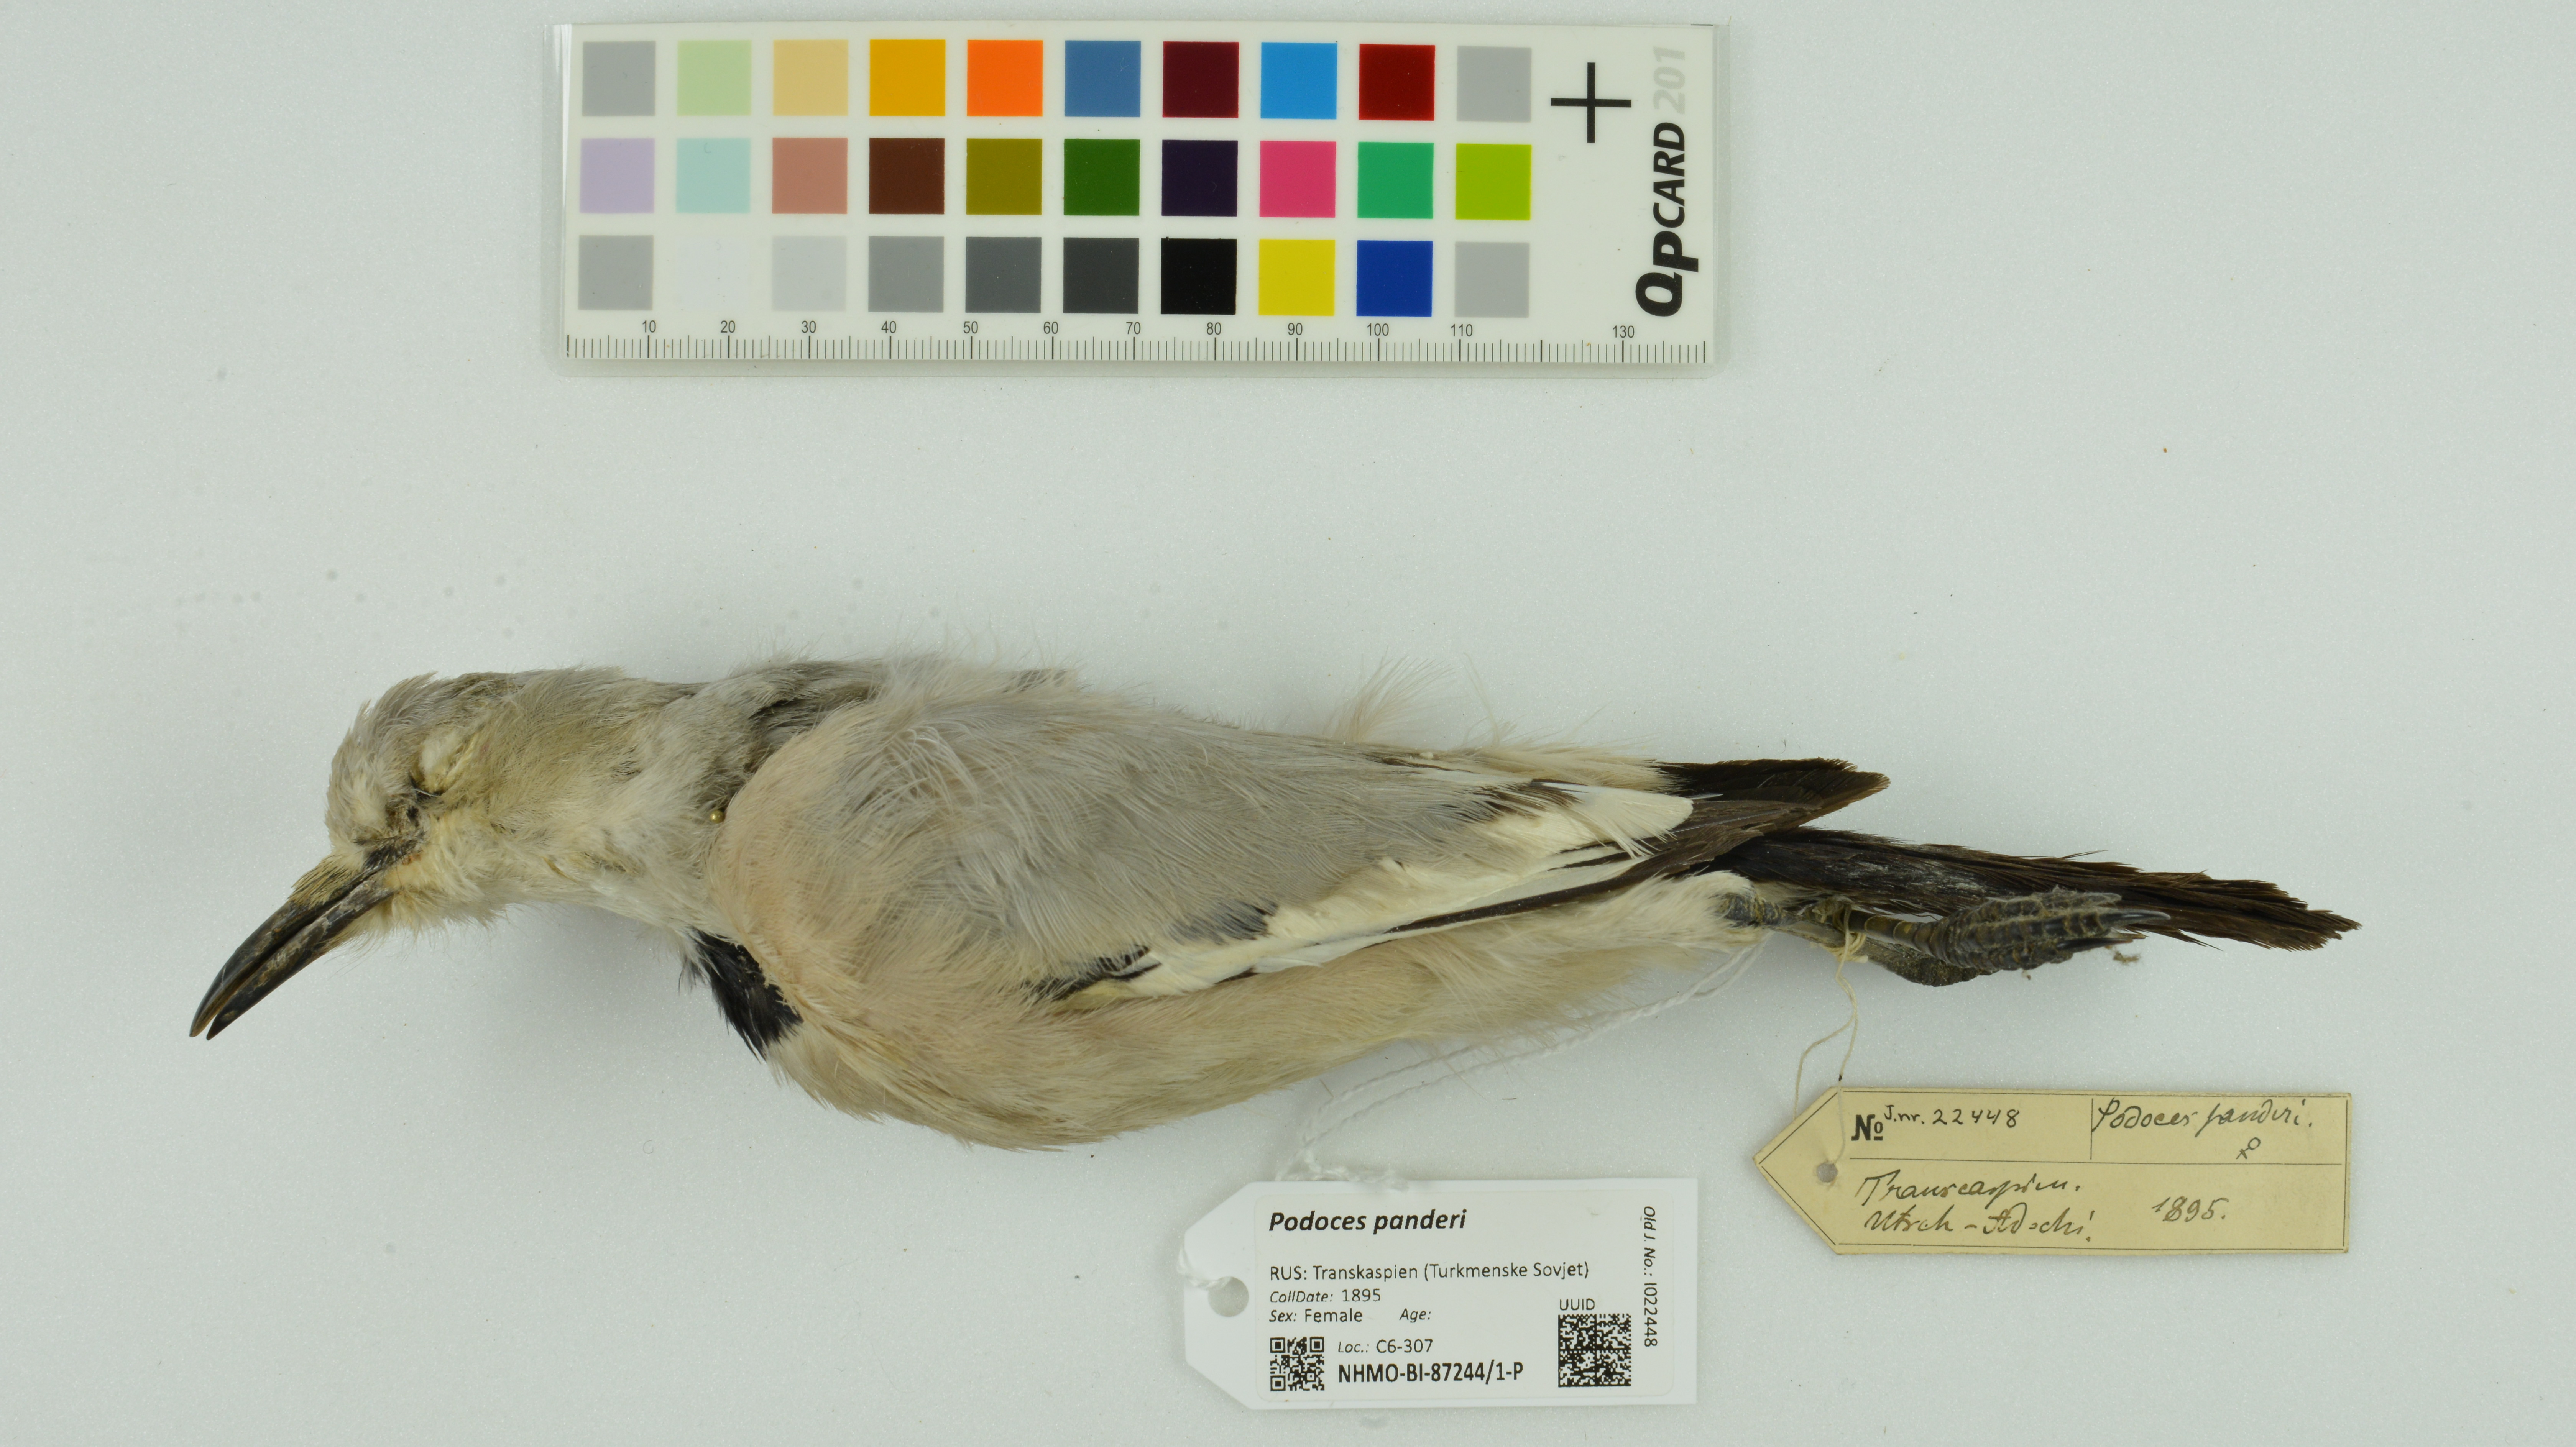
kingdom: Animalia
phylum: Chordata
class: Aves
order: Passeriformes
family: Corvidae
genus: Podoces
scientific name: Podoces panderi
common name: Pander's ground jay
